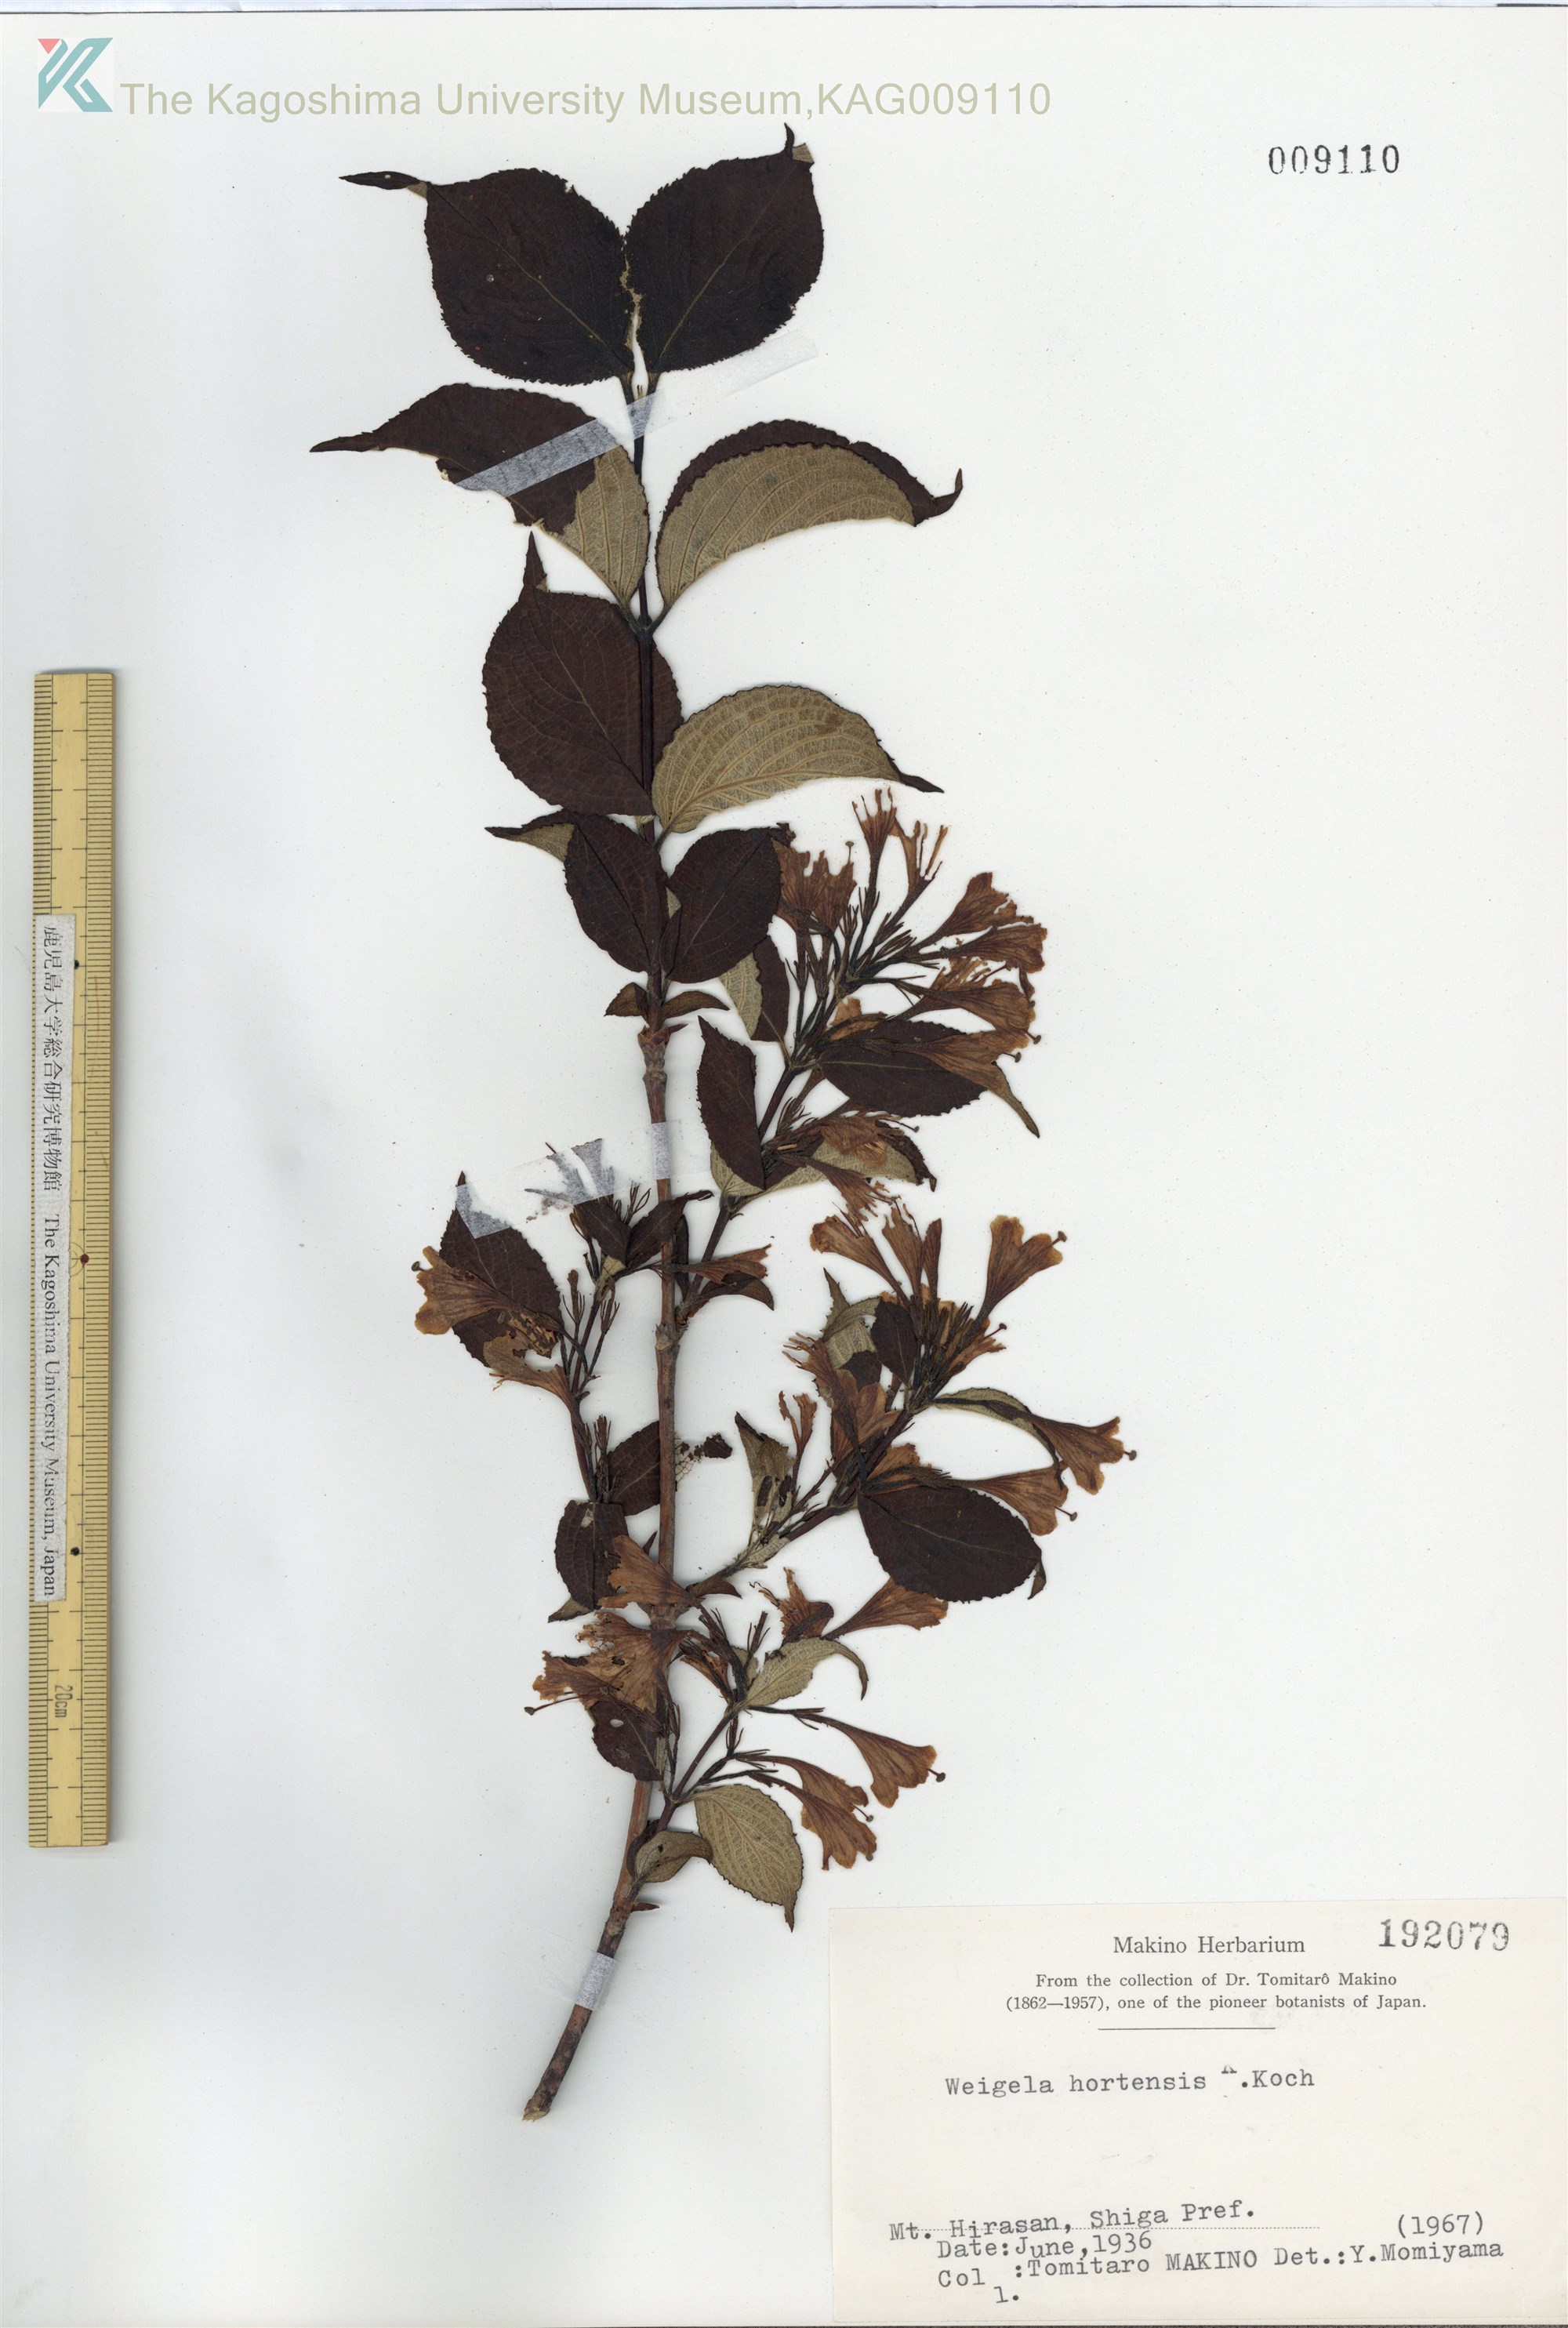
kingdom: Plantae
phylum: Tracheophyta
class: Magnoliopsida
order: Dipsacales
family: Caprifoliaceae
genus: Weigela
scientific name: Weigela hortensis
